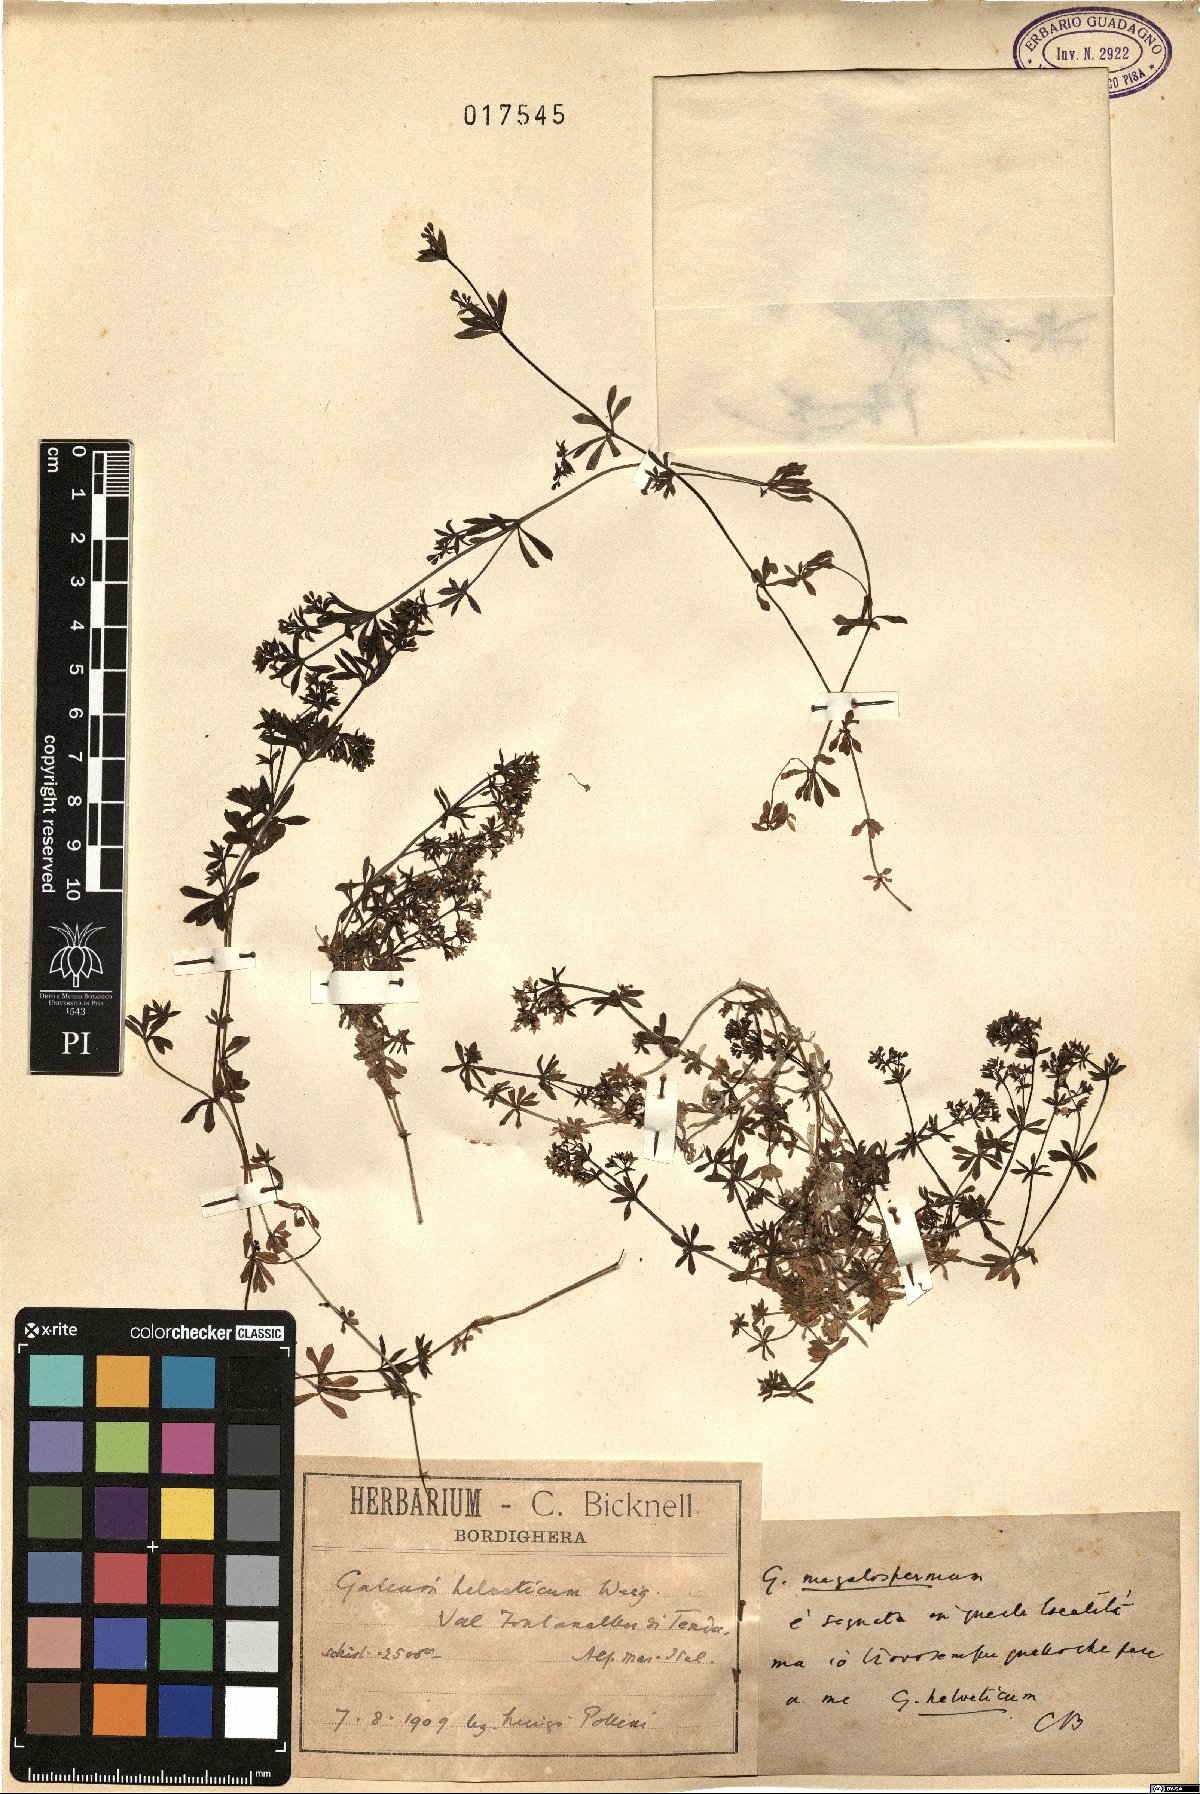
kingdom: Plantae
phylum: Tracheophyta
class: Magnoliopsida
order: Gentianales
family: Rubiaceae
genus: Galium
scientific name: Galium saxatile
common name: Heath bedstraw
